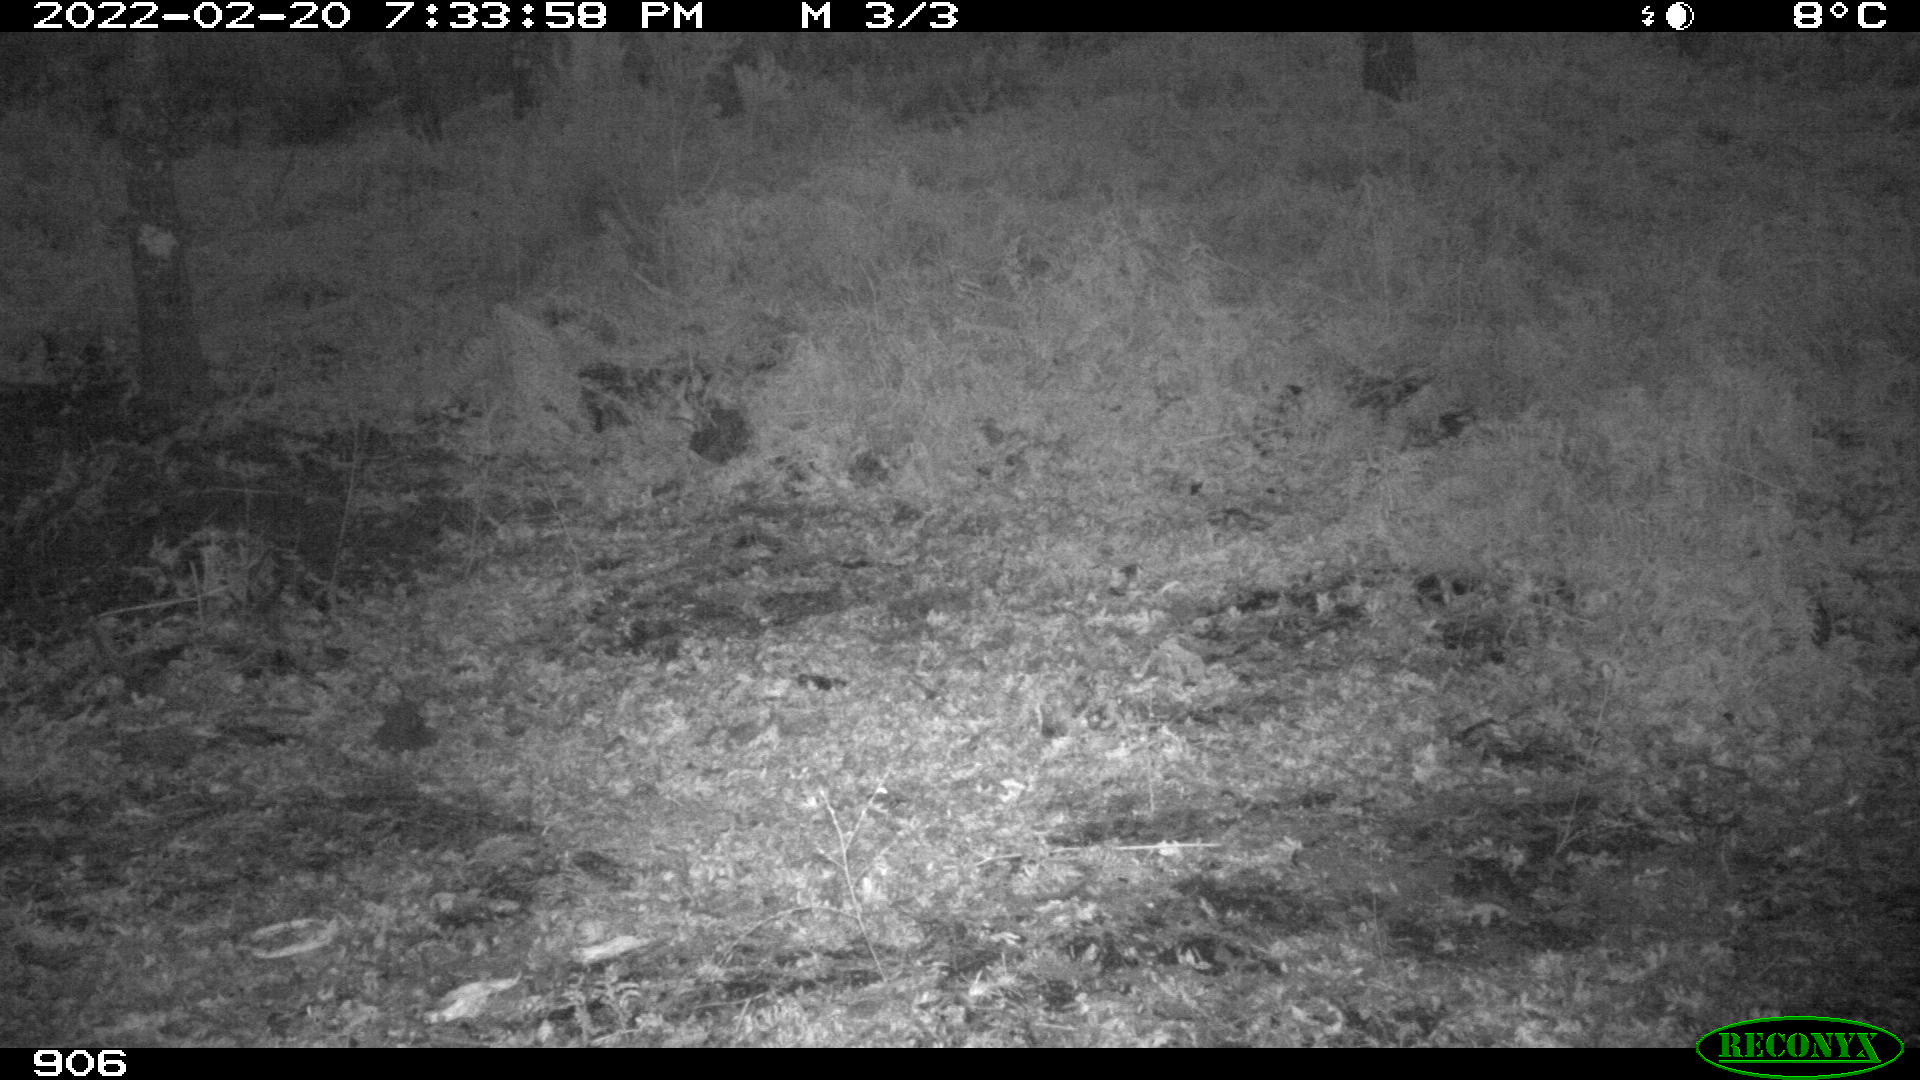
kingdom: Animalia
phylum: Chordata
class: Mammalia
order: Artiodactyla
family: Suidae
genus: Sus
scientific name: Sus scrofa
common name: Wild boar
